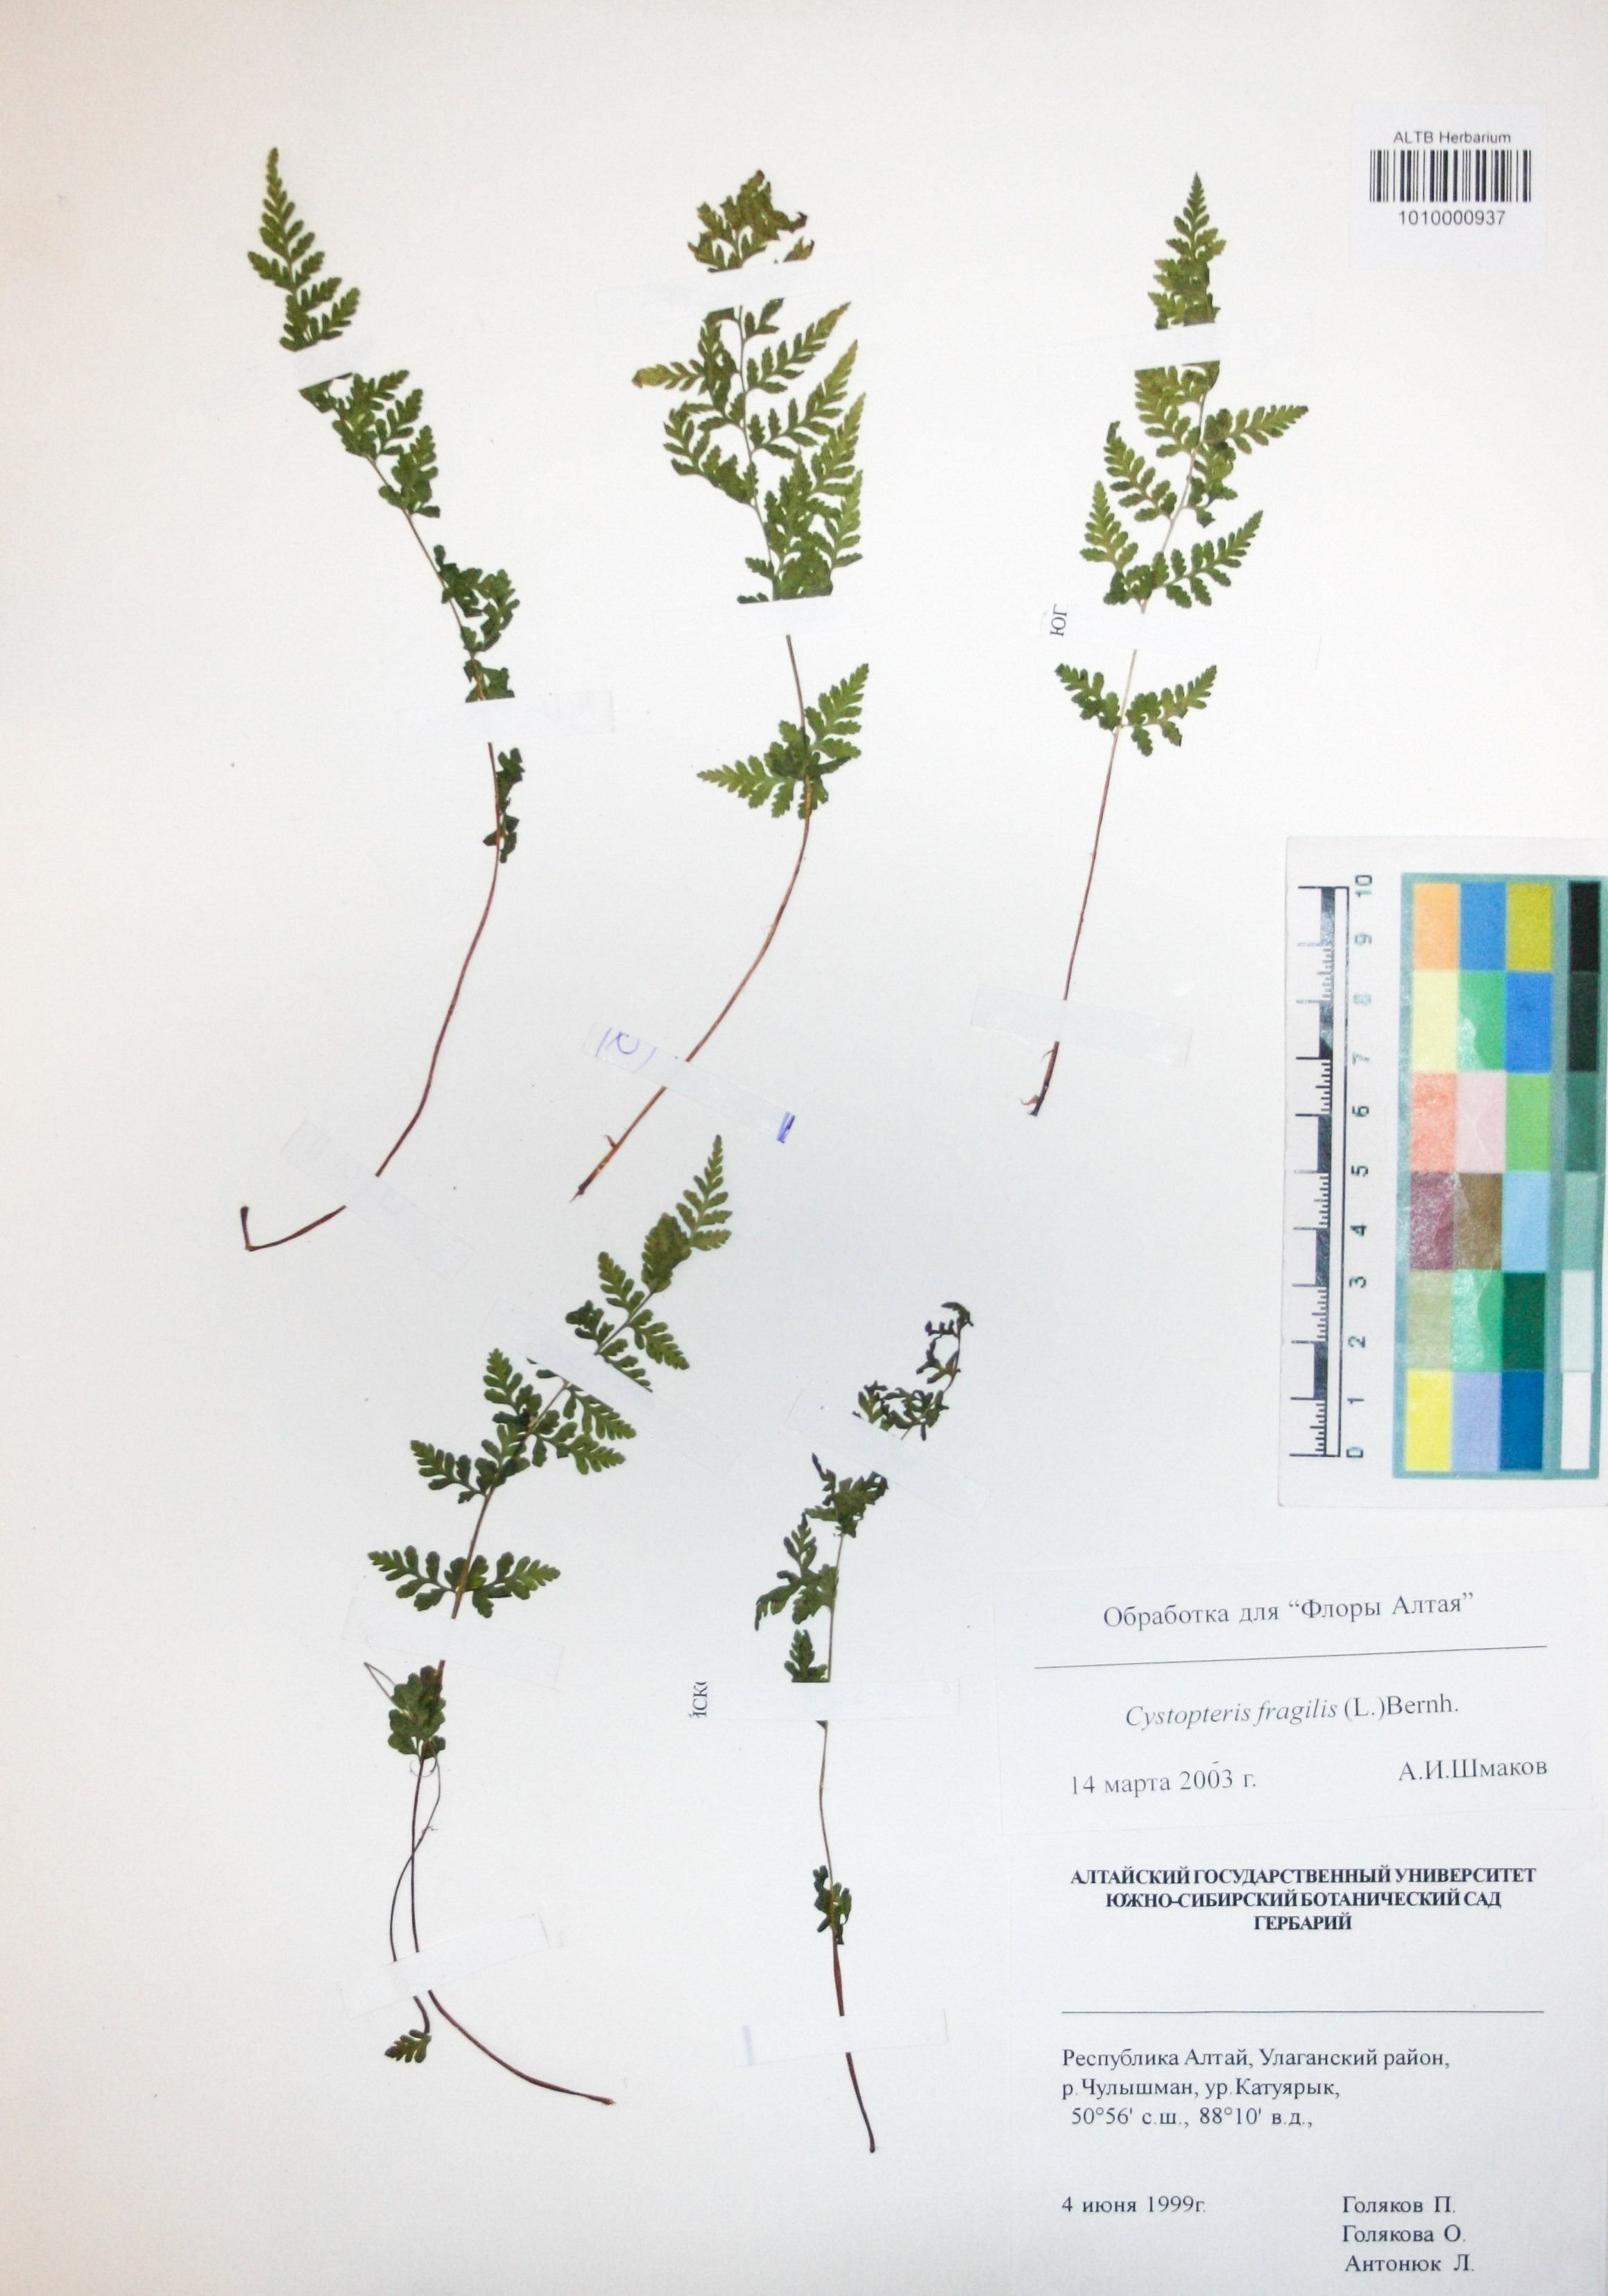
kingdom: Plantae
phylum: Tracheophyta
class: Polypodiopsida
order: Polypodiales
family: Cystopteridaceae
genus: Cystopteris
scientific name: Cystopteris fragilis
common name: Brittle bladder fern
